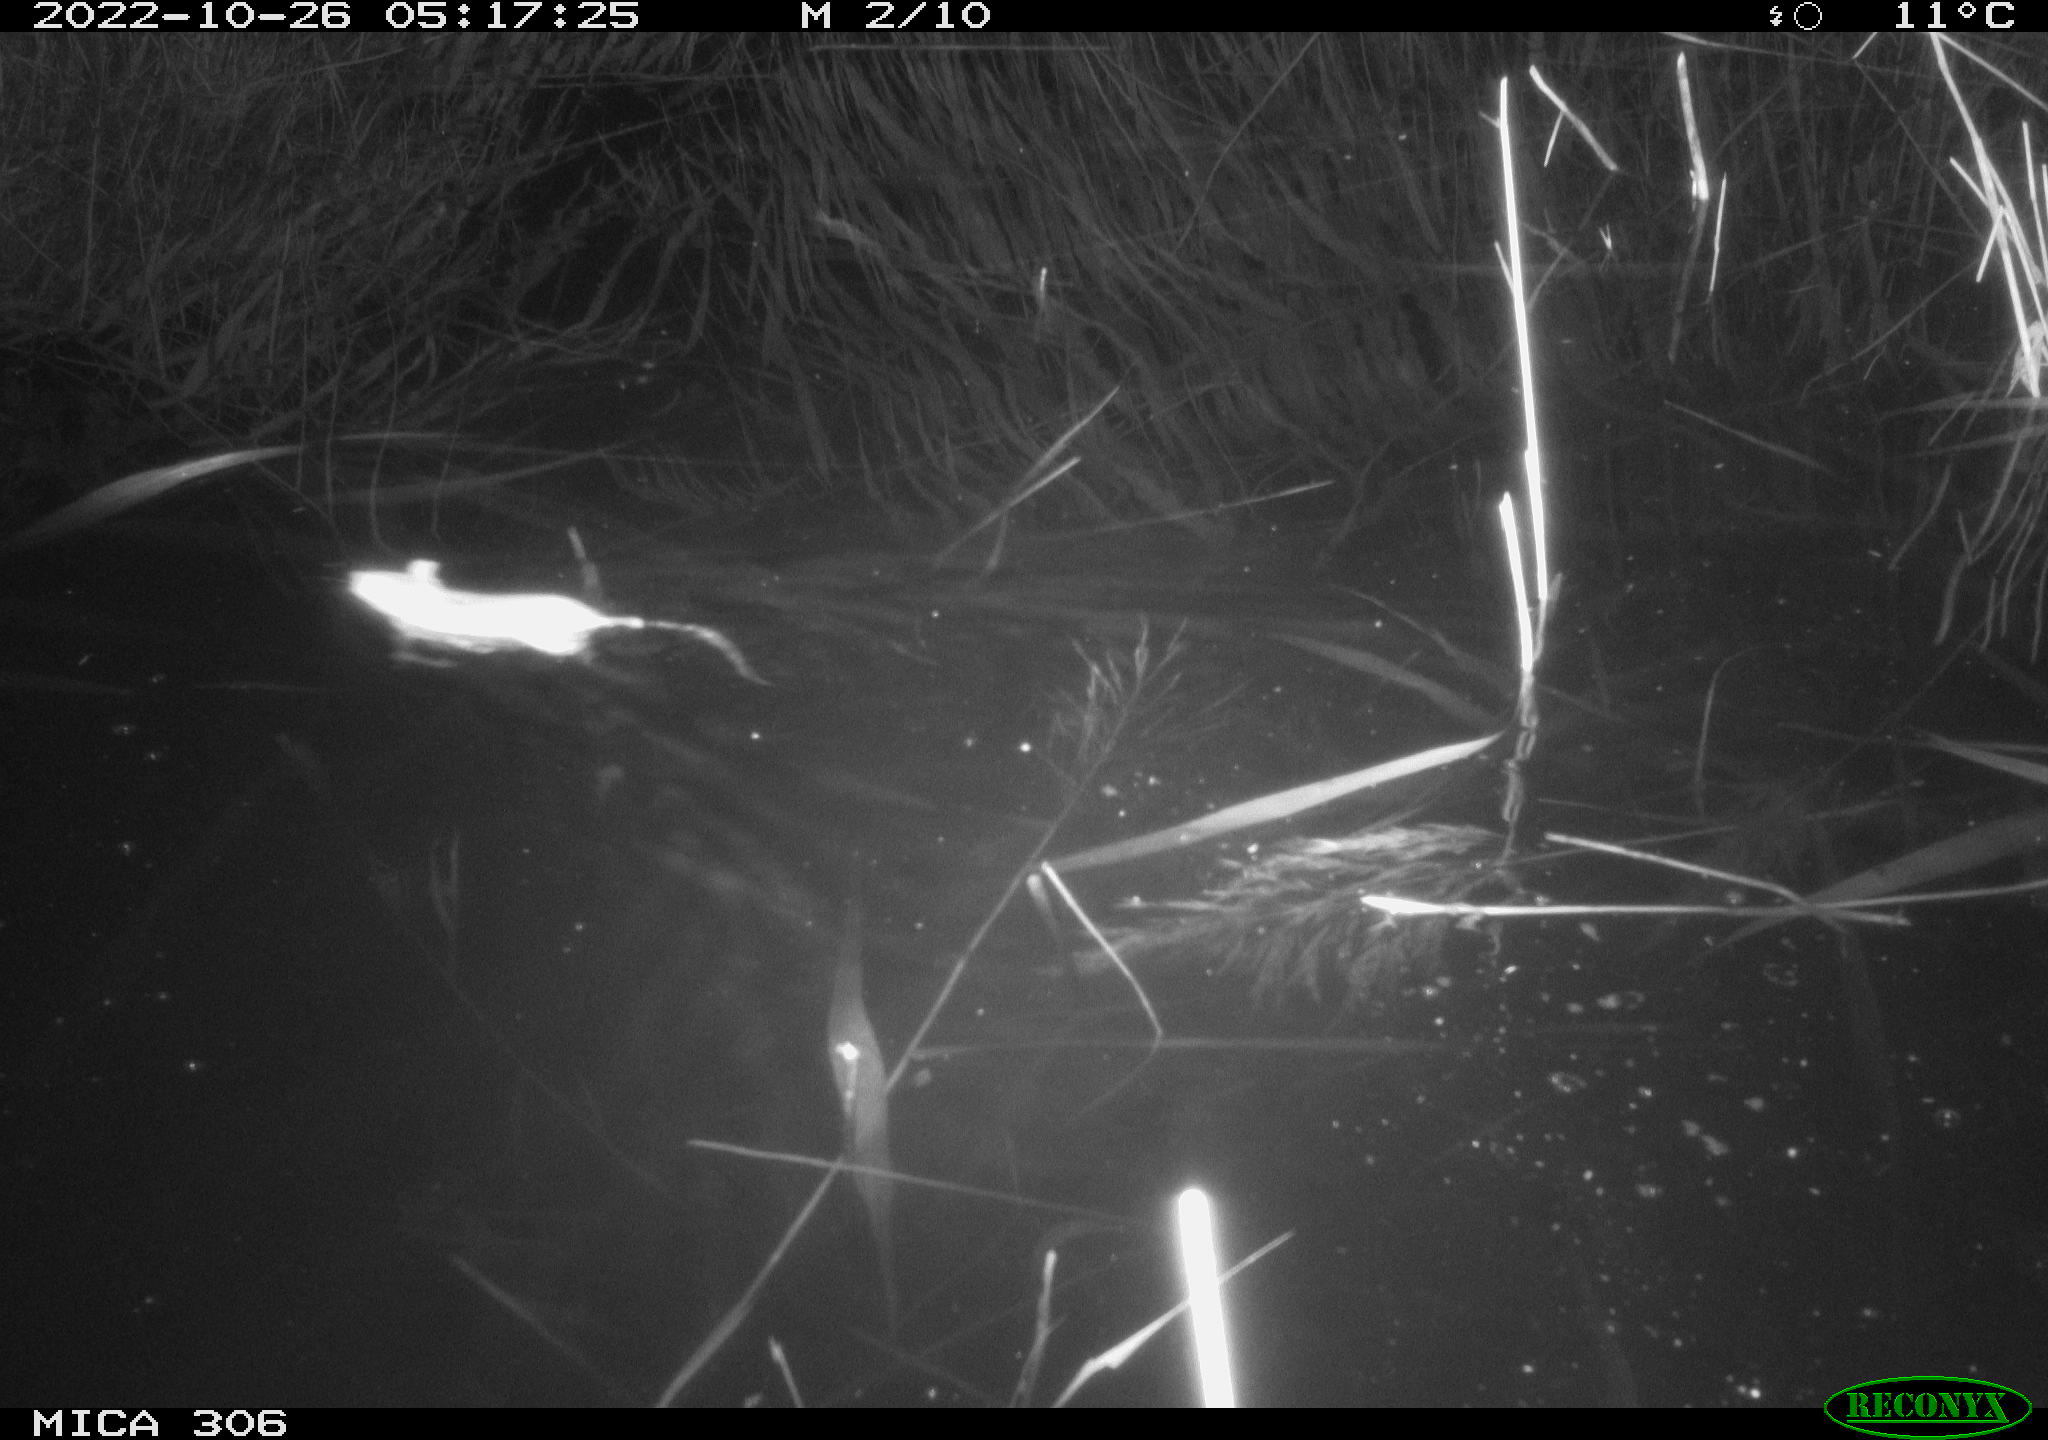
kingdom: Animalia
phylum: Chordata
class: Mammalia
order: Rodentia
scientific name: Rodentia
